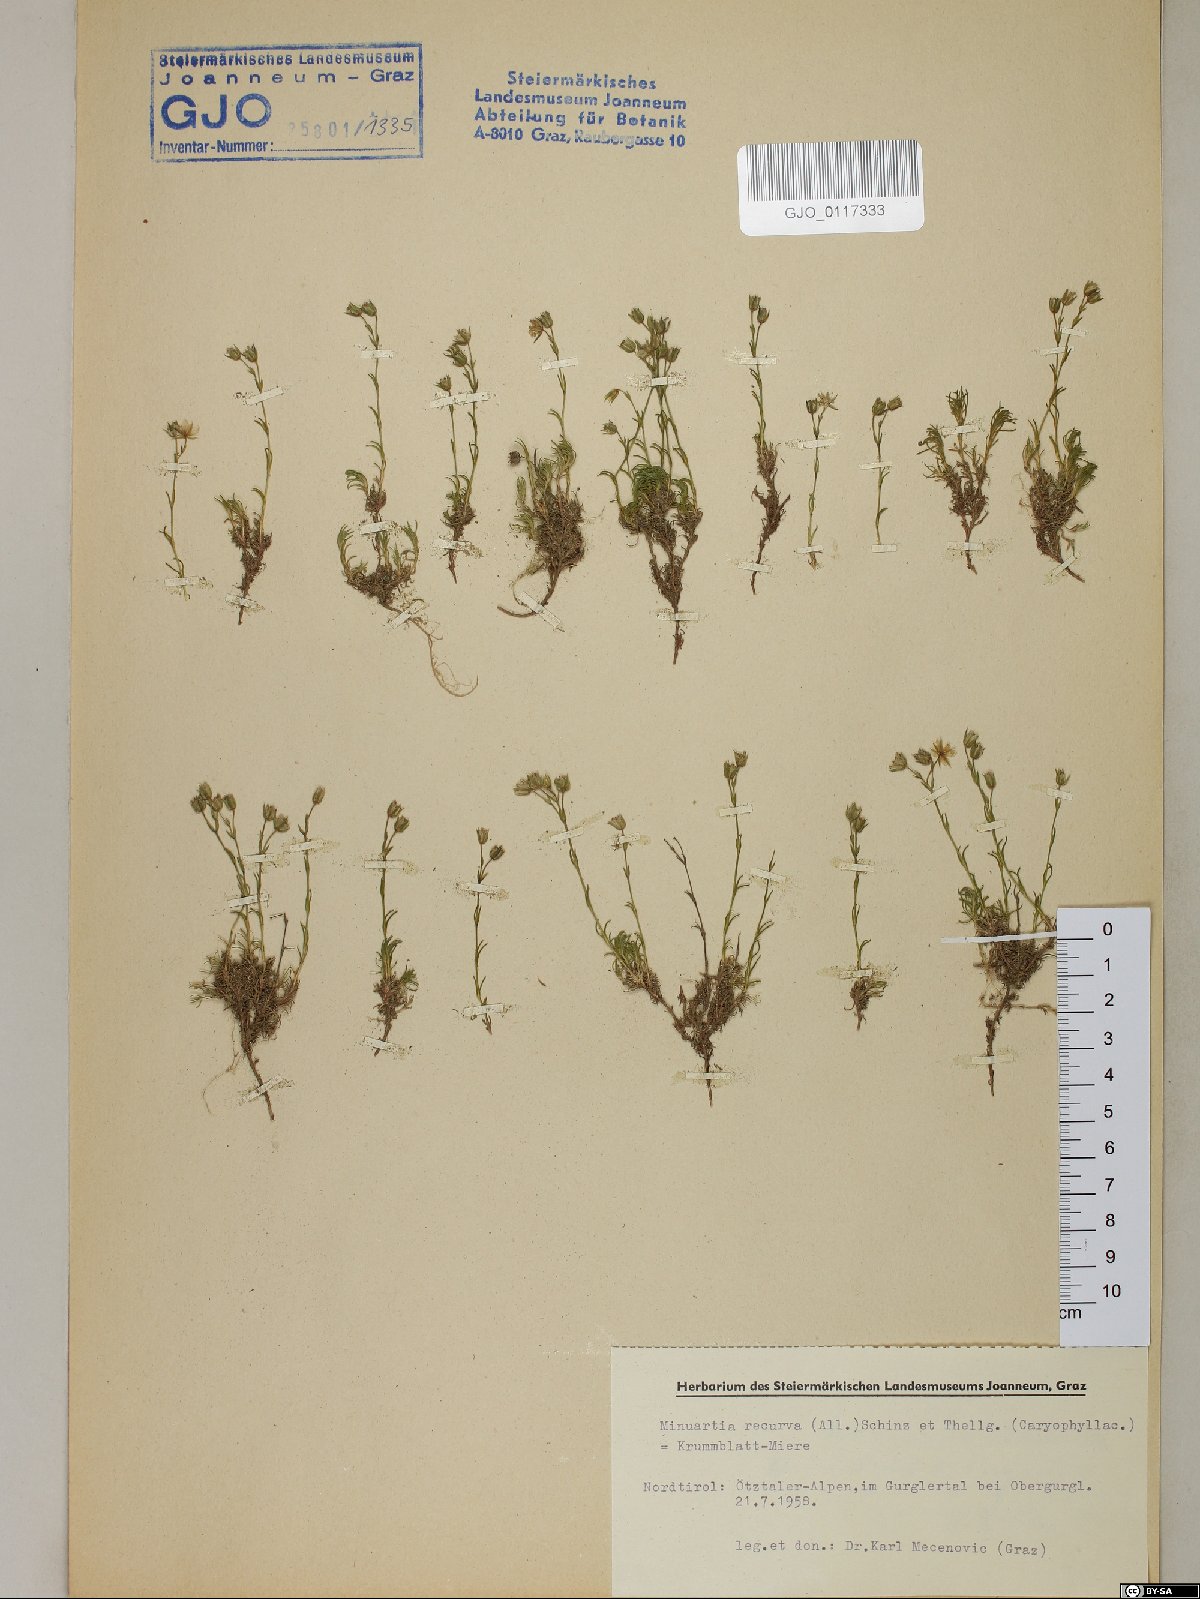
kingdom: Plantae
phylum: Tracheophyta
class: Magnoliopsida
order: Caryophyllales
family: Caryophyllaceae
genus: Minuartia
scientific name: Minuartia recurva
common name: Recurved sandwort
